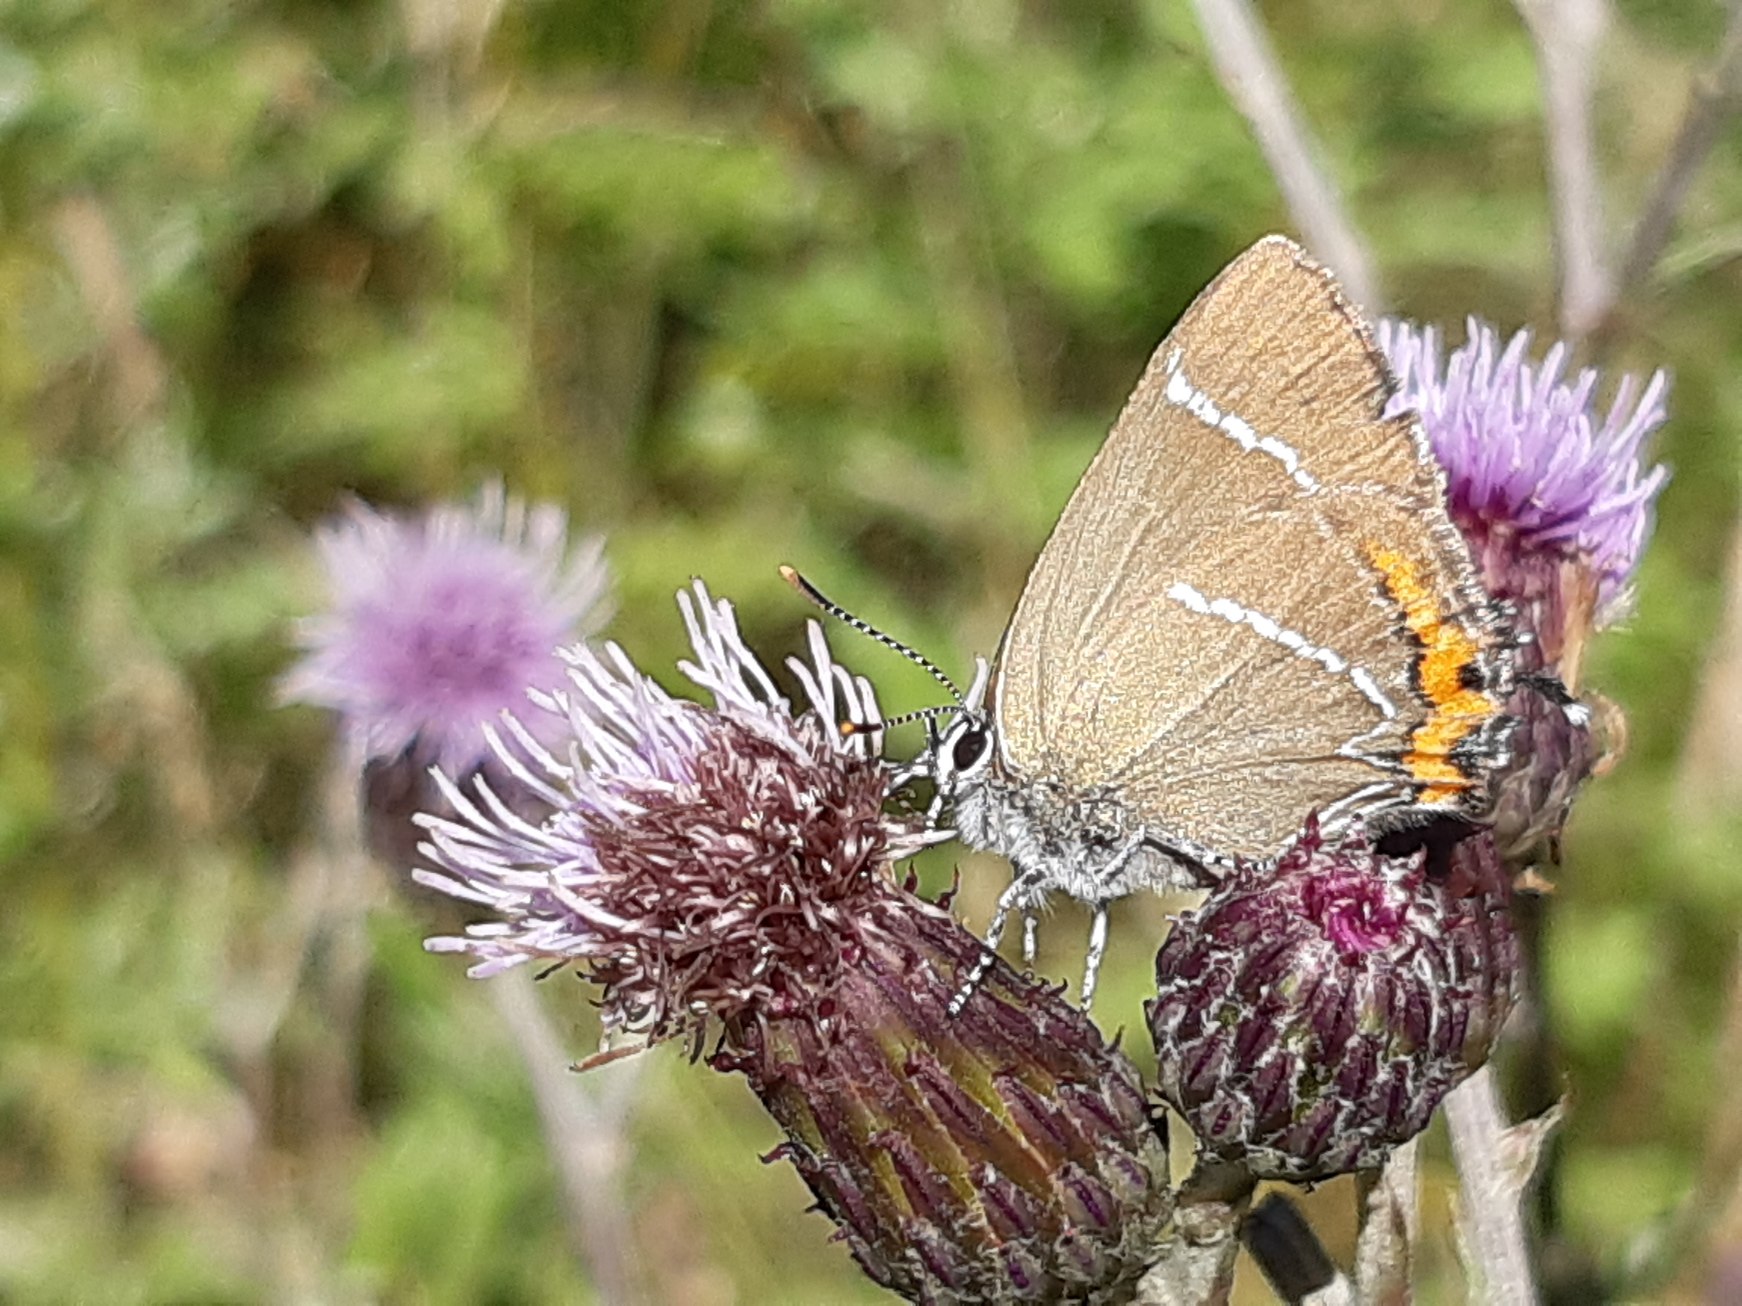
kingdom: Animalia
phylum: Arthropoda
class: Insecta
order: Lepidoptera
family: Lycaenidae
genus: Satyrium
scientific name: Satyrium w-album
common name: Det hvide W
